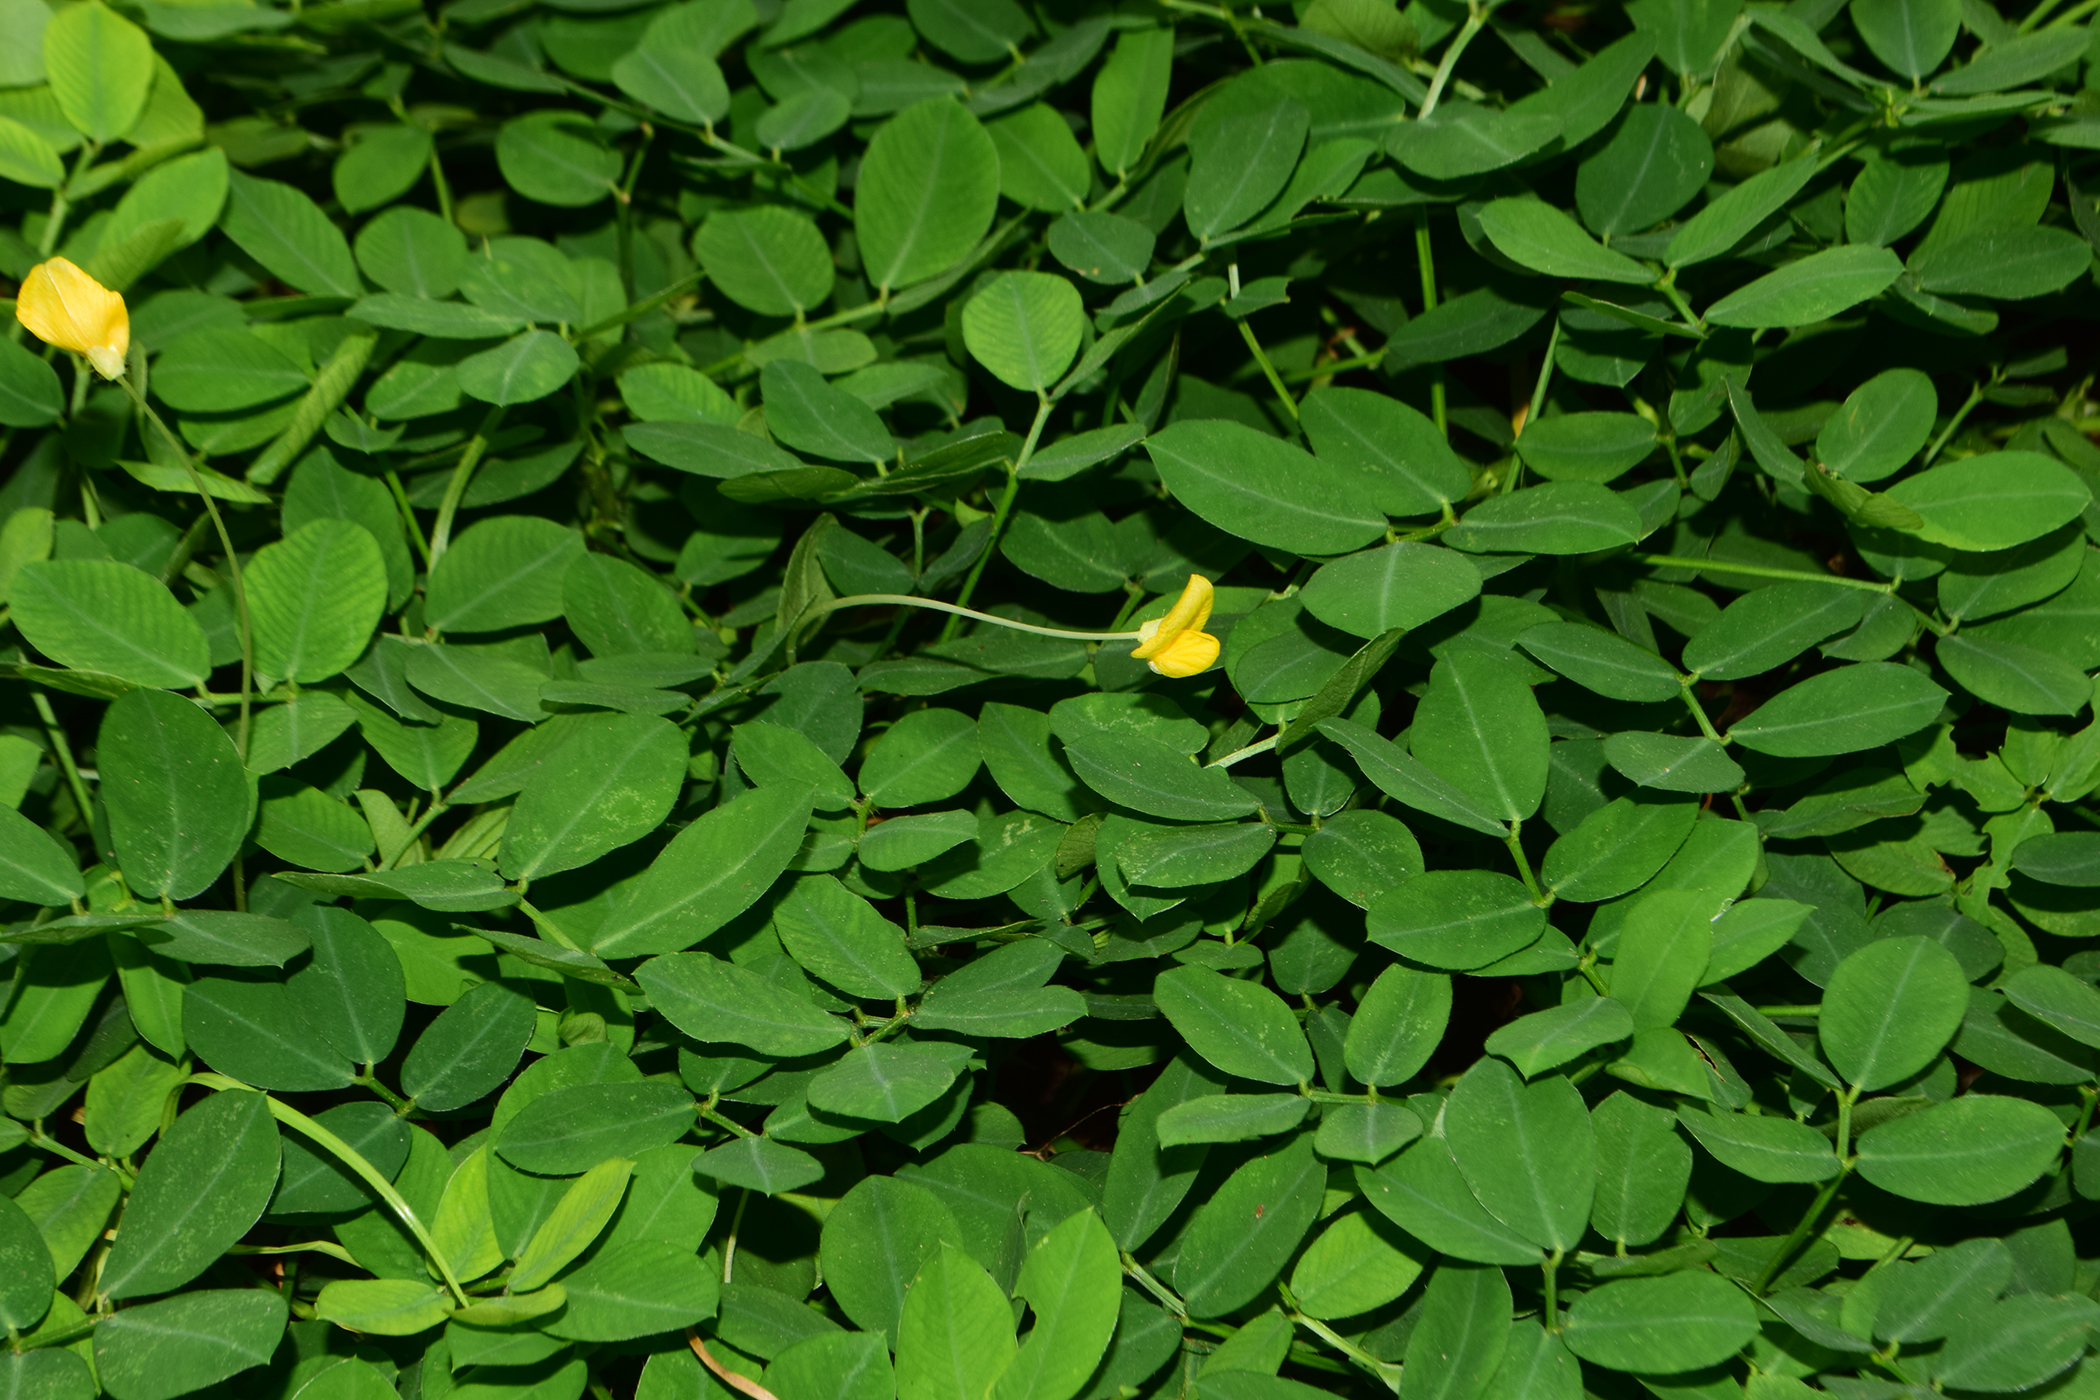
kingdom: Plantae
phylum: Tracheophyta
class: Magnoliopsida
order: Fabales
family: Fabaceae
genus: Arachis
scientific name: Arachis pintoi
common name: Pinto peanut
